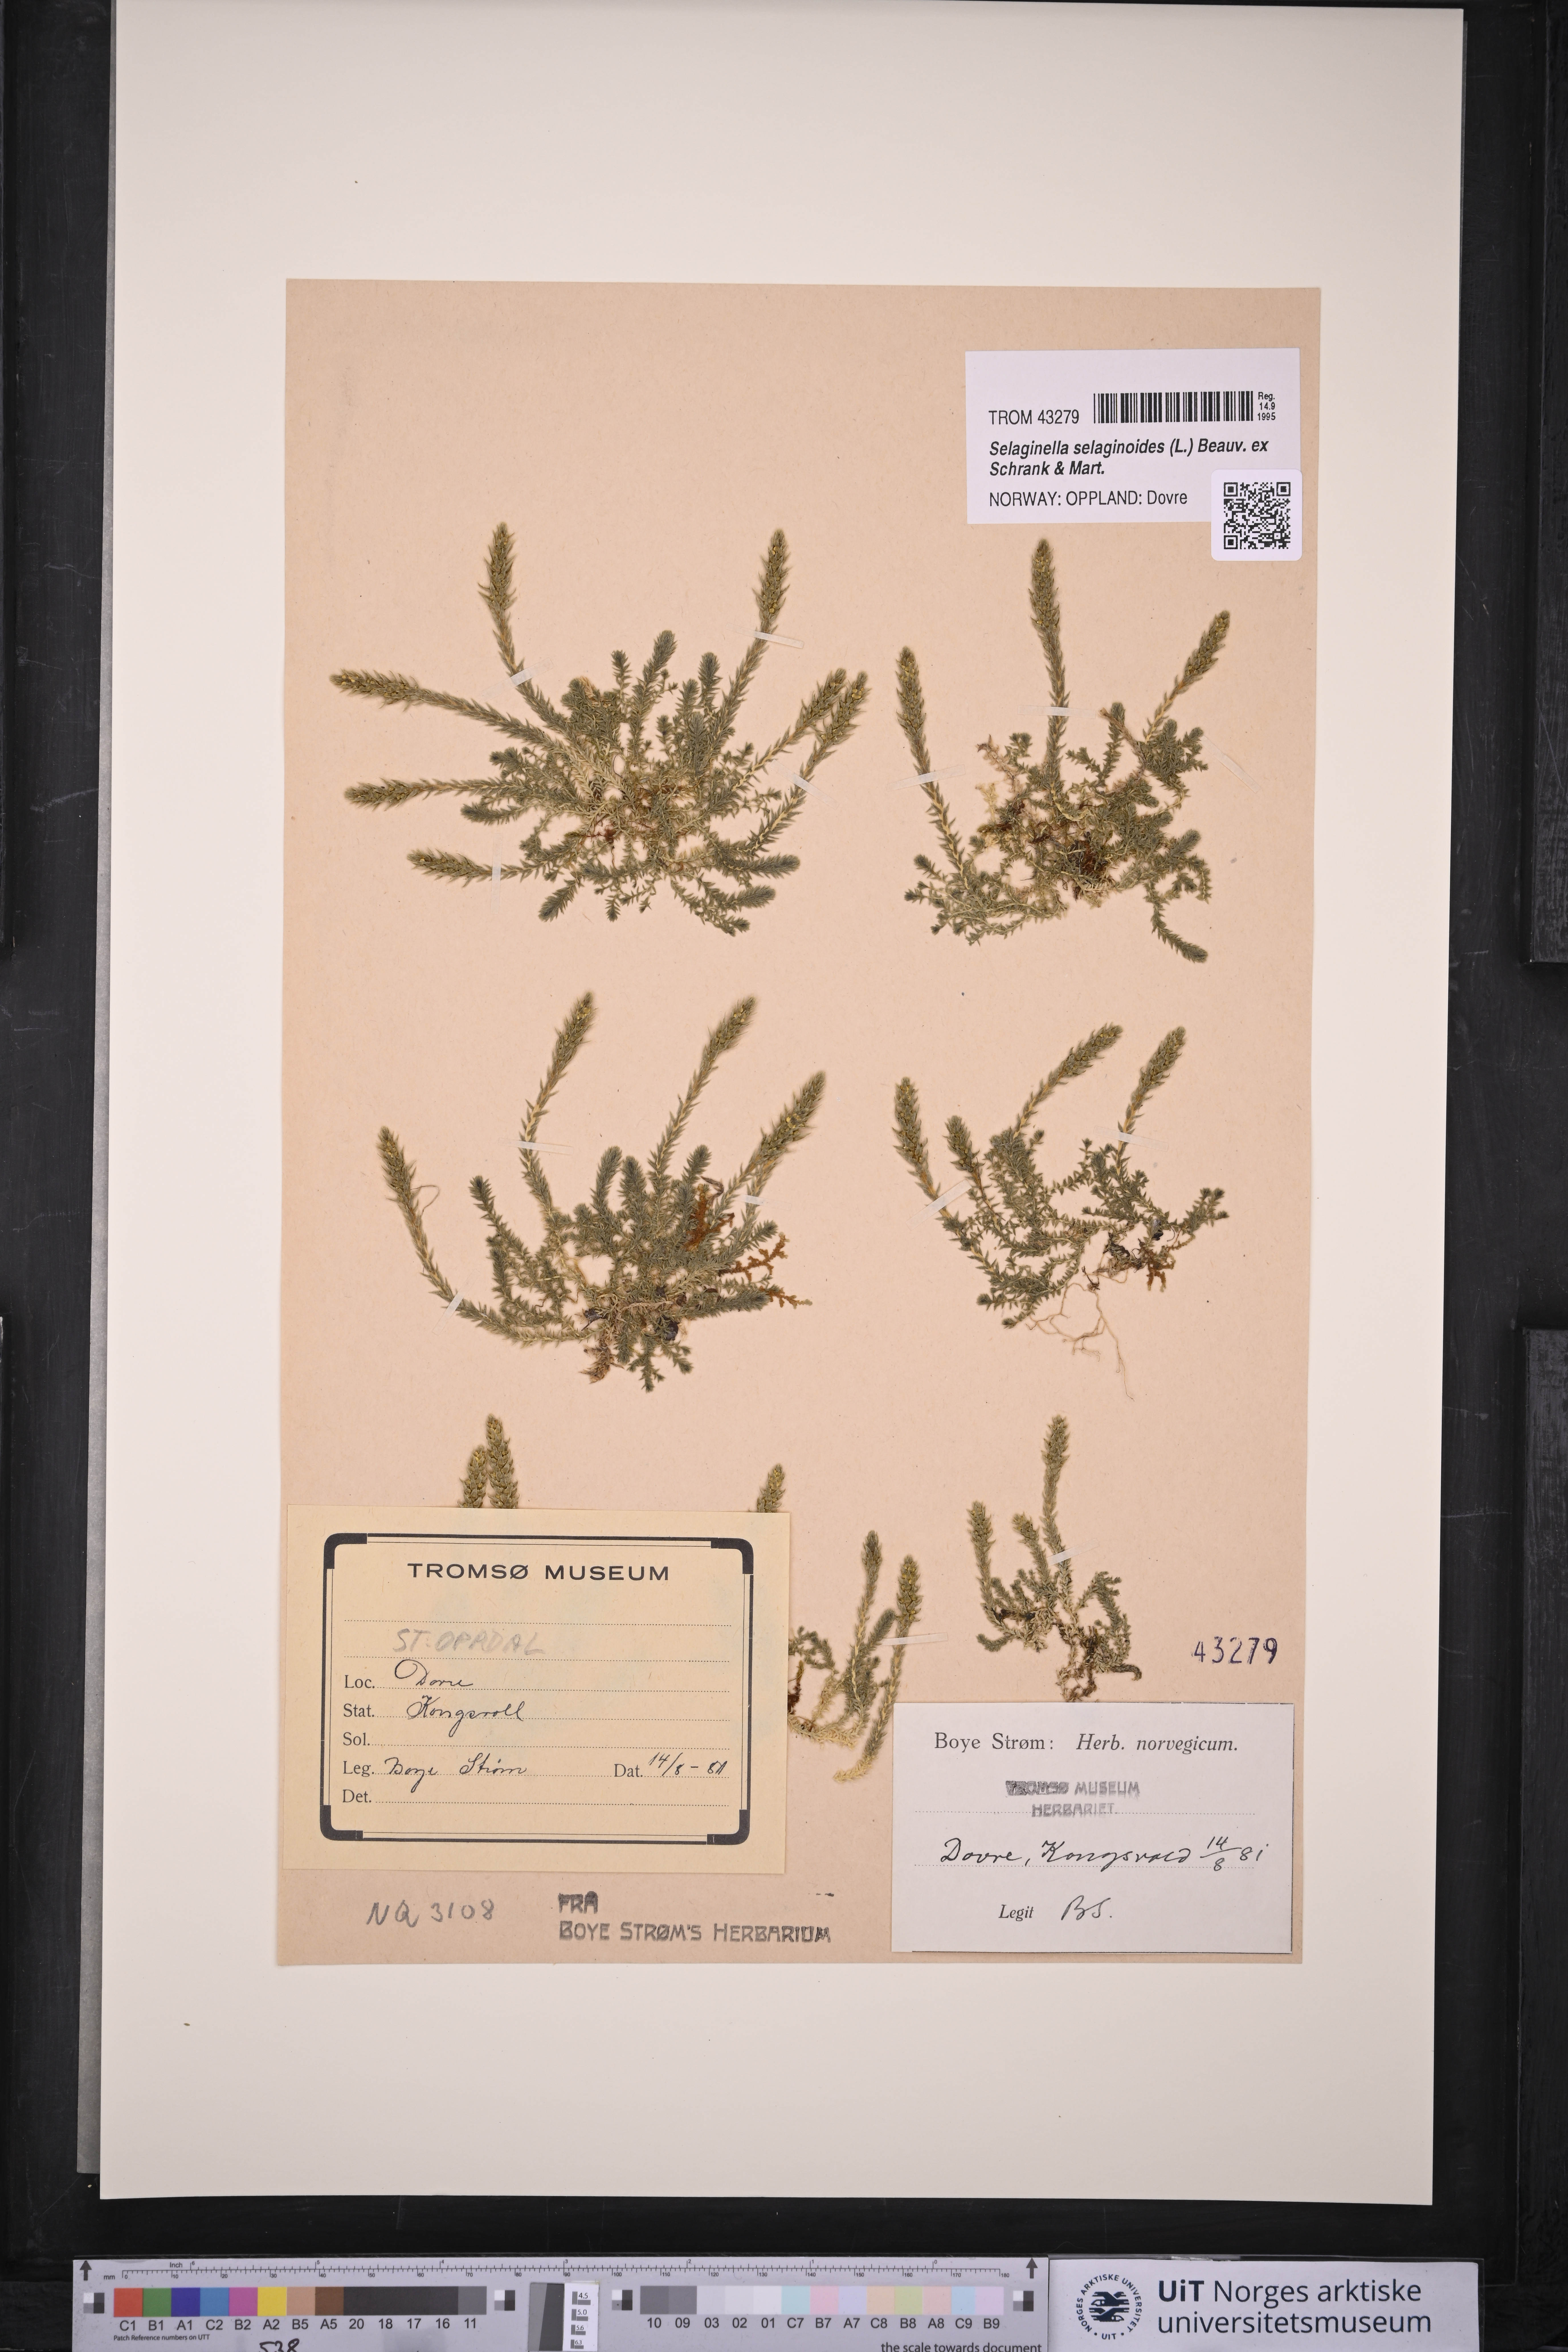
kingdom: Plantae
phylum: Tracheophyta
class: Lycopodiopsida
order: Selaginellales
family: Selaginellaceae
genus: Selaginella
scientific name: Selaginella selaginoides
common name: Prickly mountain-moss
